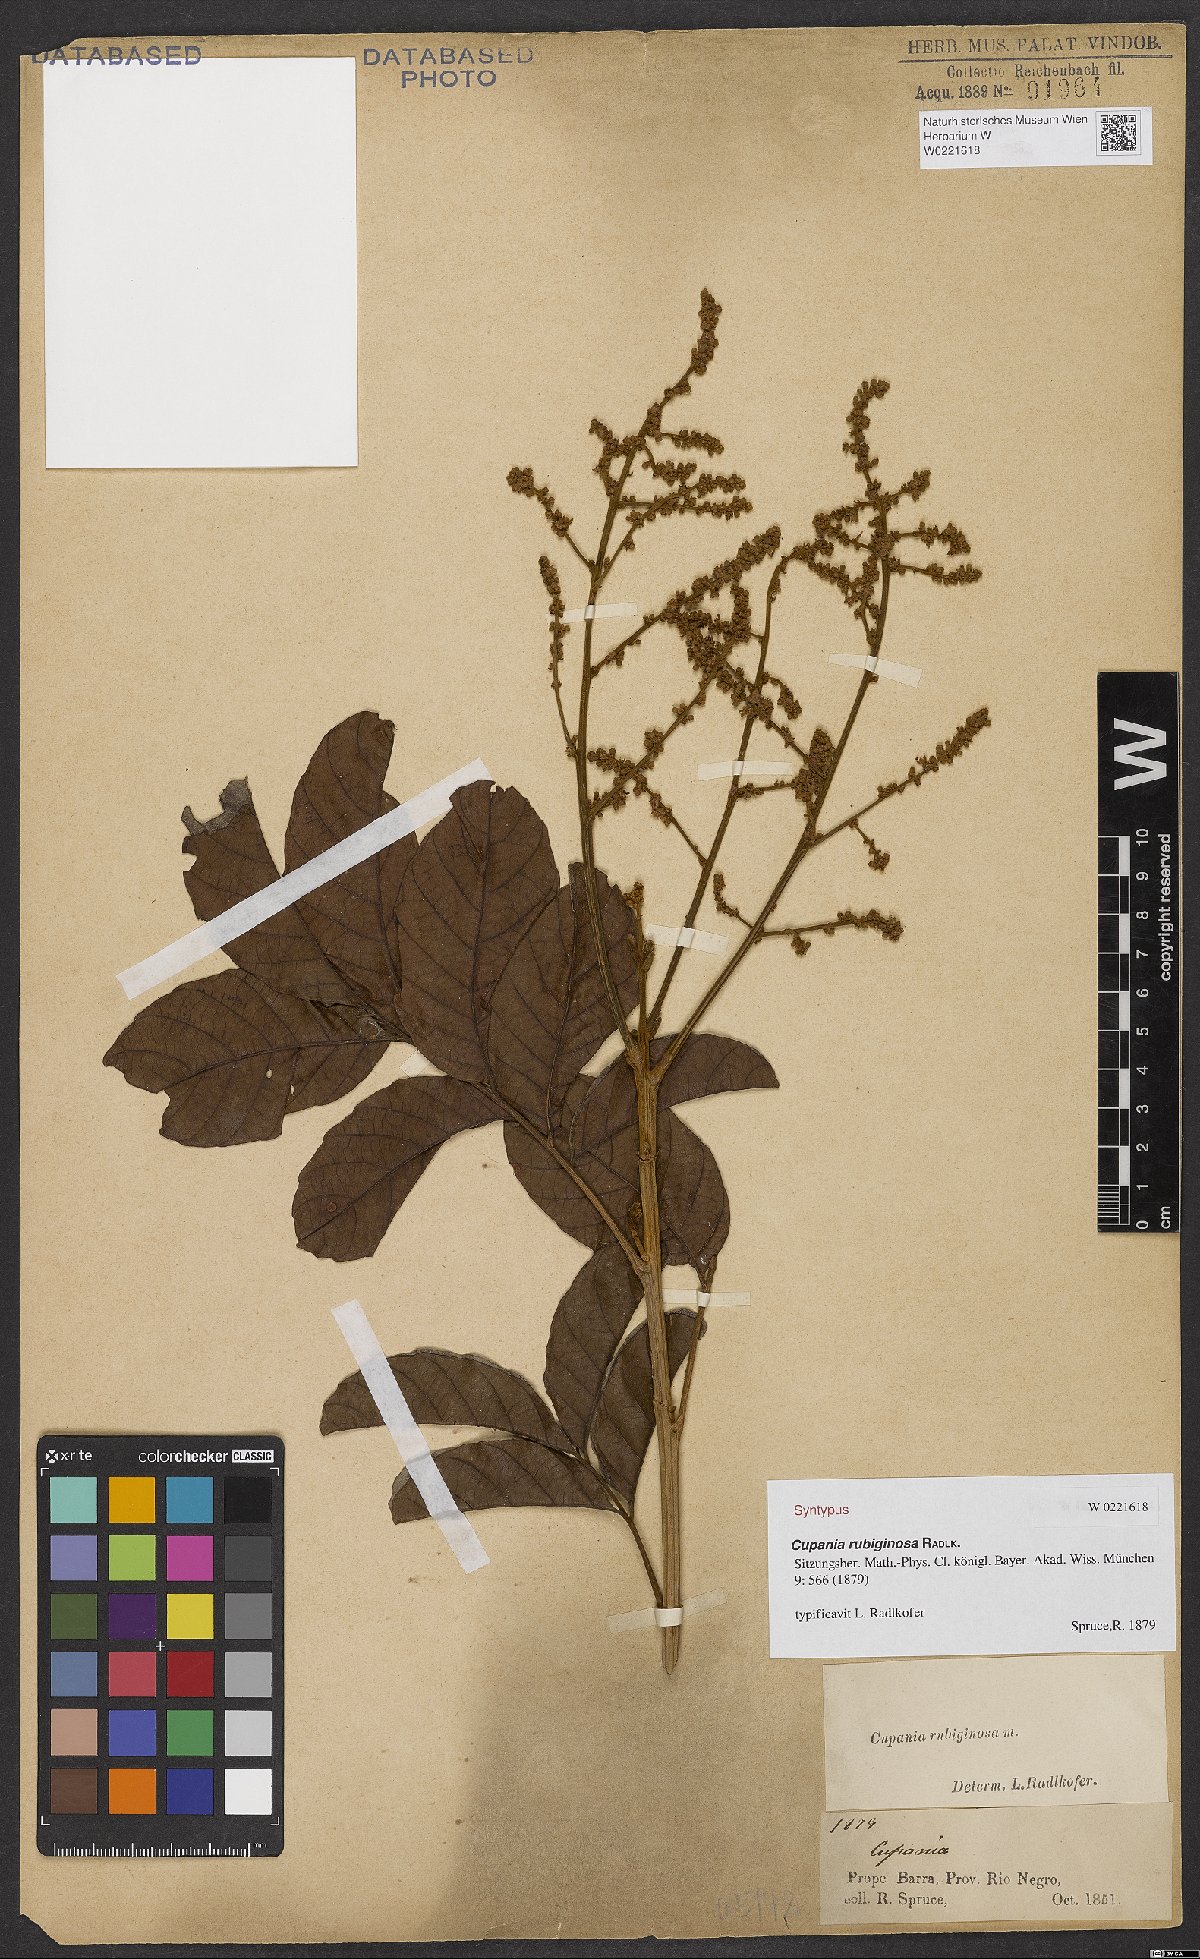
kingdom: Plantae
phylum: Tracheophyta
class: Magnoliopsida
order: Sapindales
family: Sapindaceae
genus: Cupania
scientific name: Cupania rubiginosa
